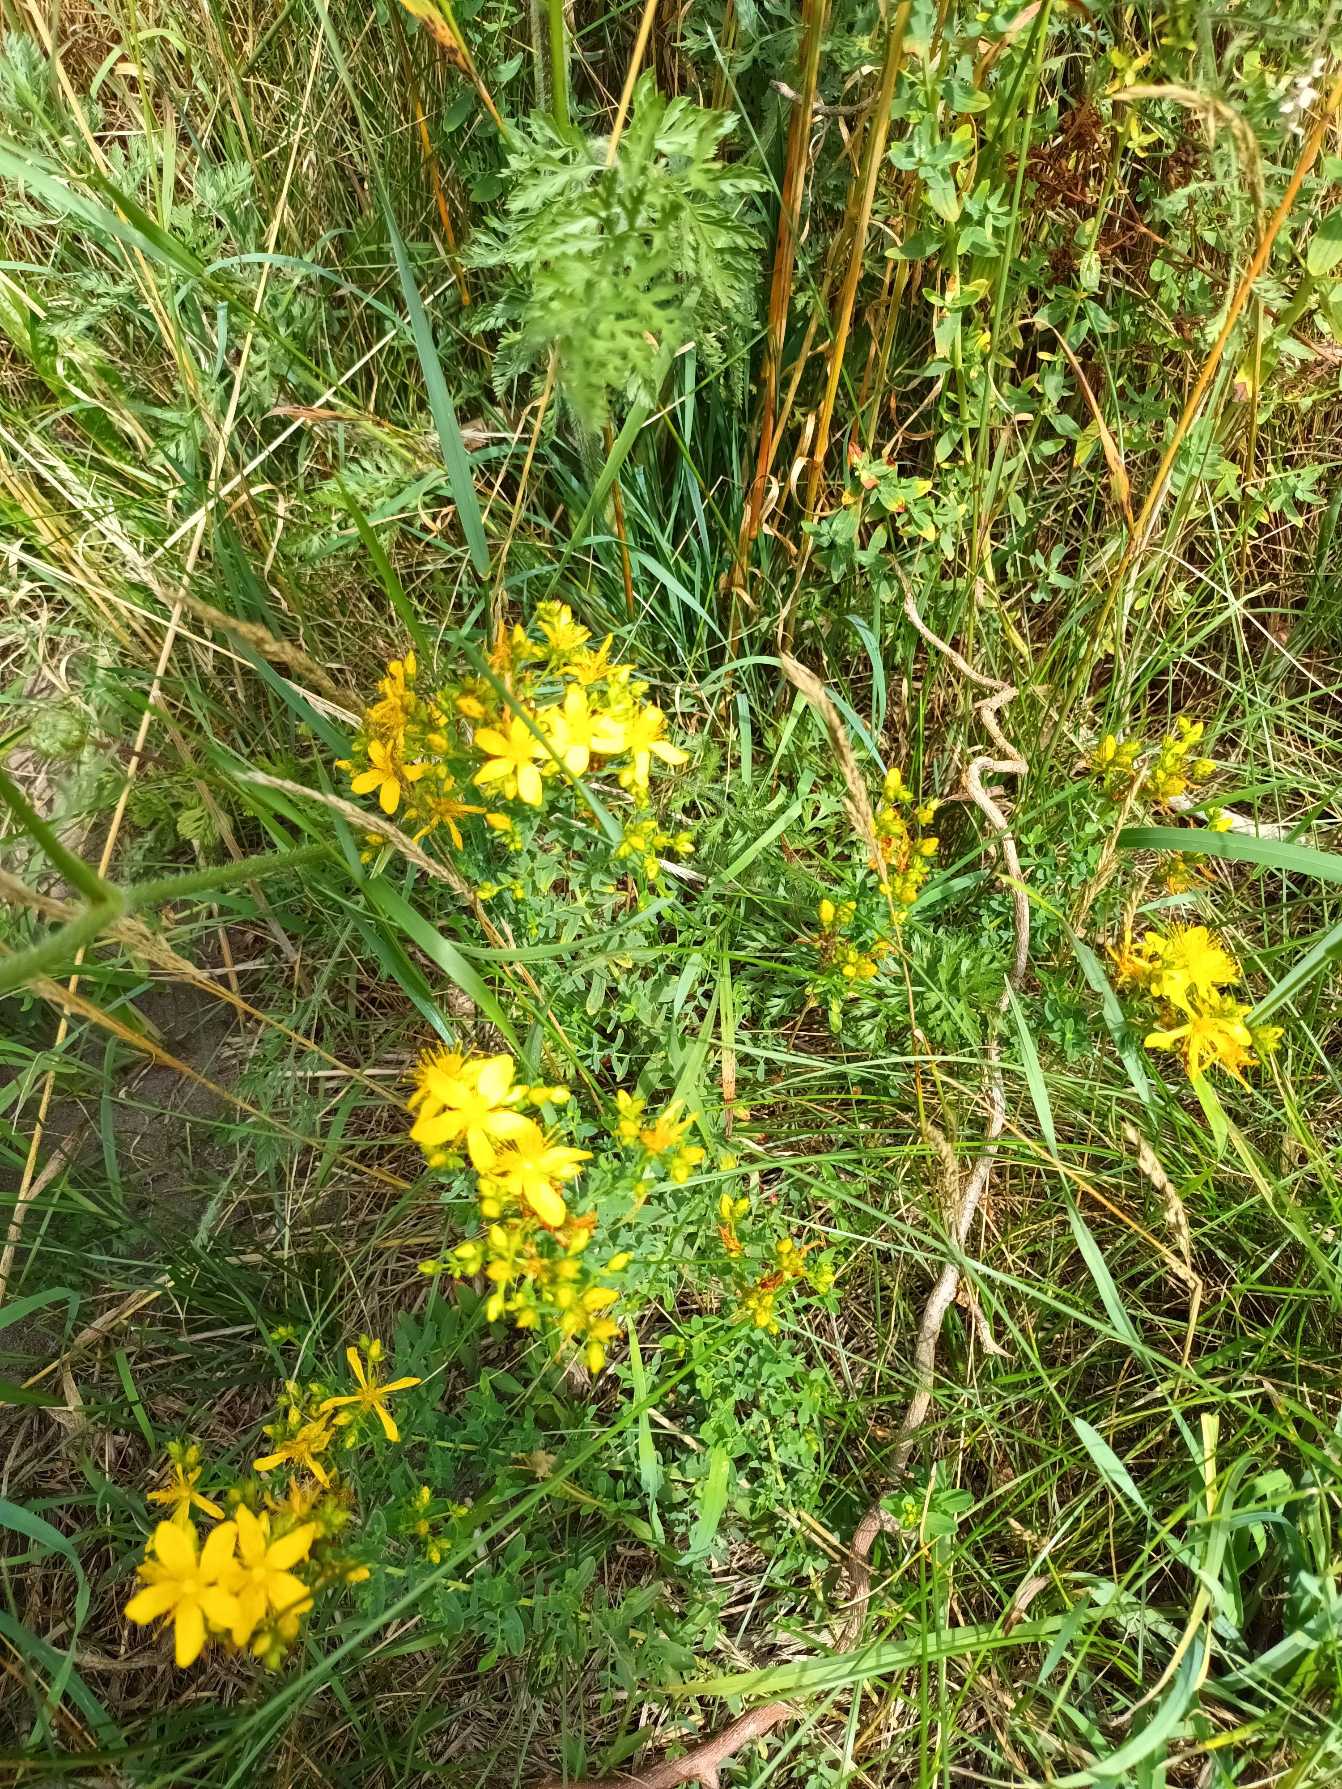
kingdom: Plantae
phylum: Tracheophyta
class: Magnoliopsida
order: Malpighiales
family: Hypericaceae
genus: Hypericum
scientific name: Hypericum perforatum
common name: Prikbladet perikon
